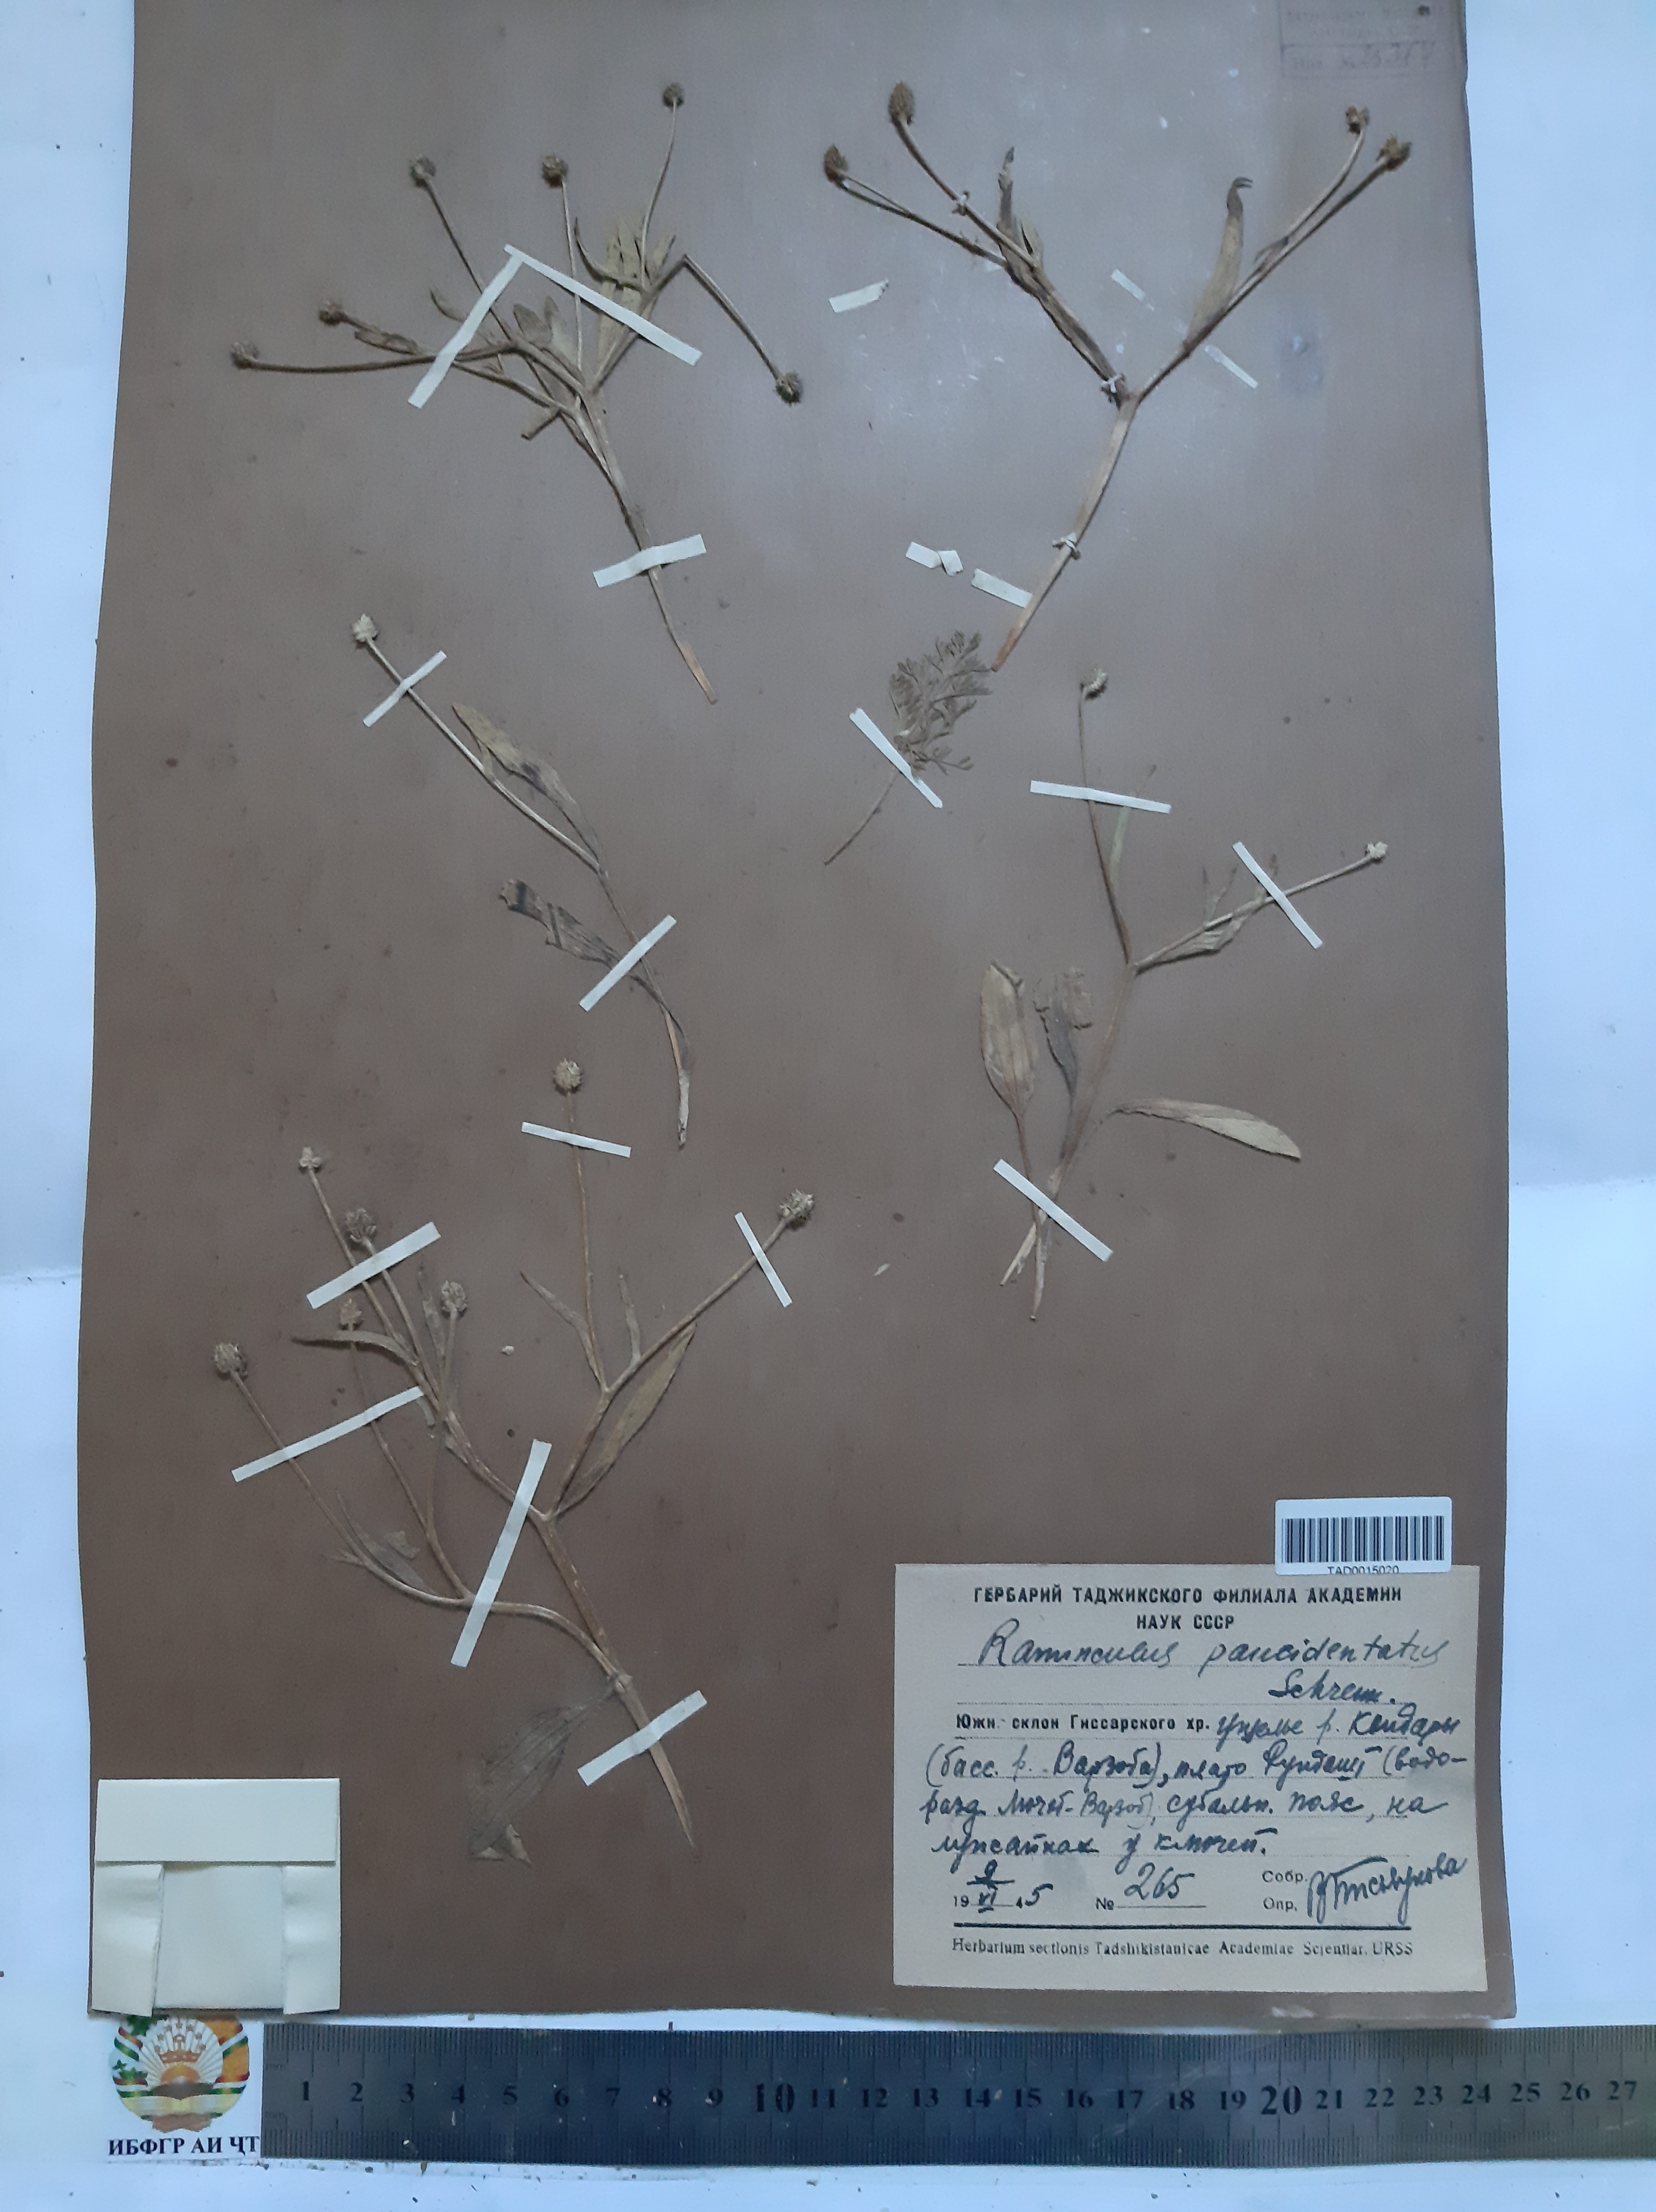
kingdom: Plantae
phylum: Tracheophyta
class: Magnoliopsida
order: Ranunculales
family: Ranunculaceae
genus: Ranunculus
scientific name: Ranunculus paucidentatus
